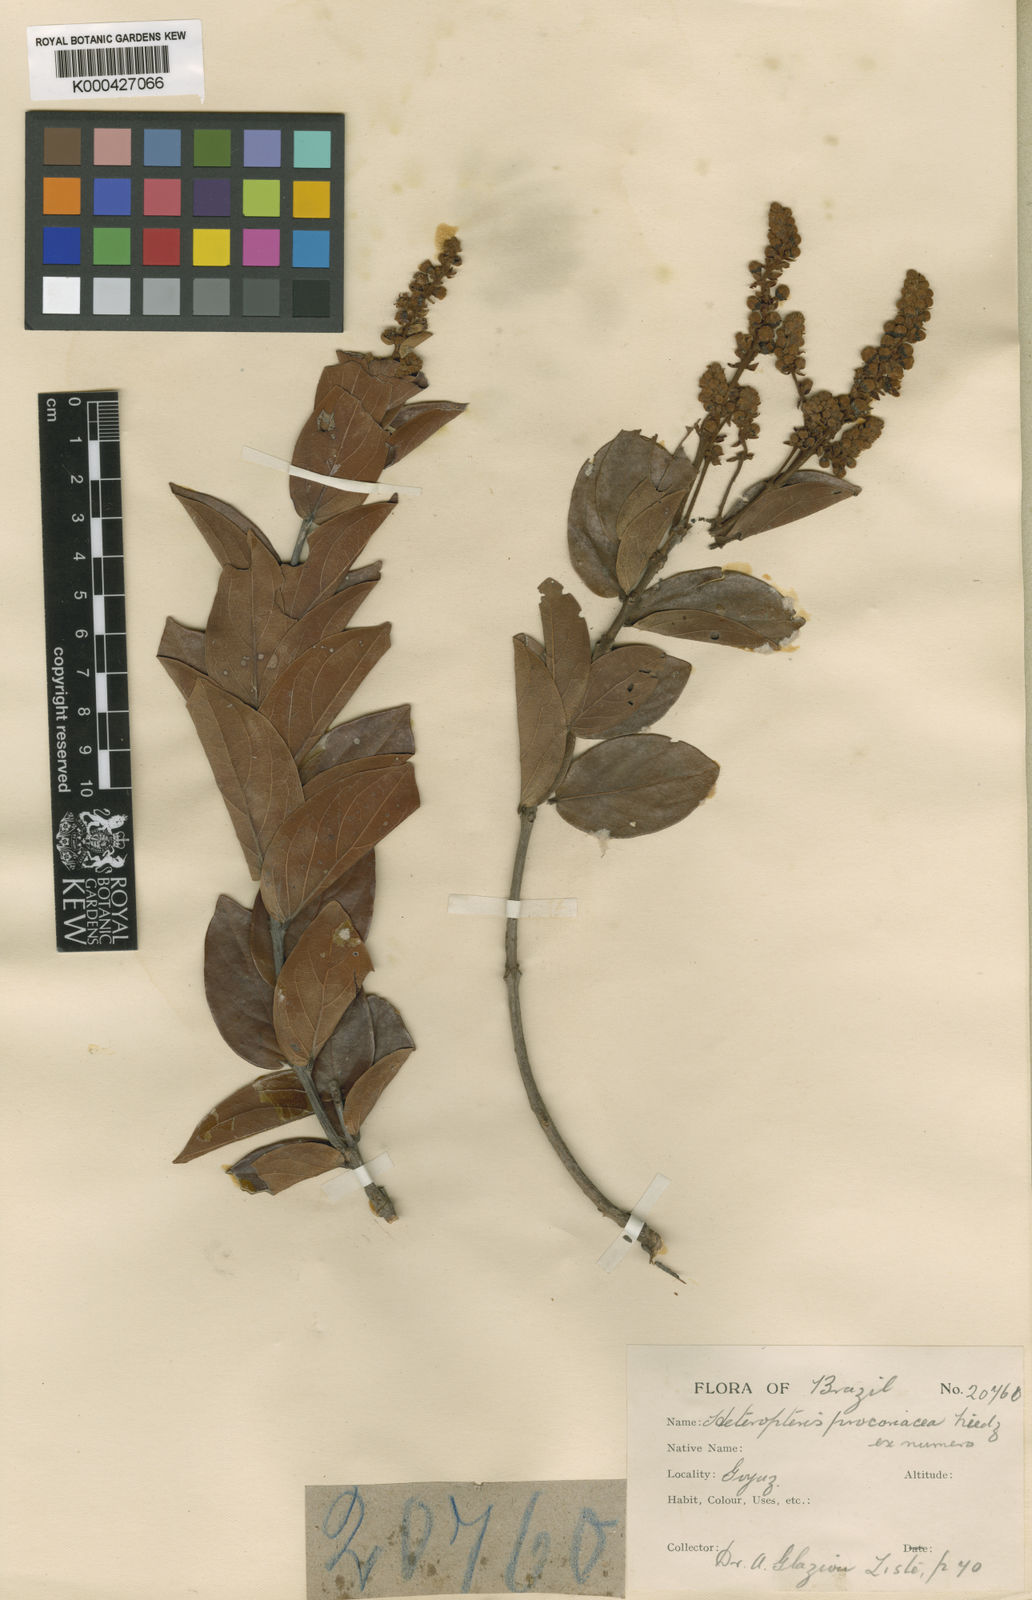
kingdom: Plantae
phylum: Tracheophyta
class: Magnoliopsida
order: Malpighiales
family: Malpighiaceae
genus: Heteropterys
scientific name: Heteropterys procoriacea
